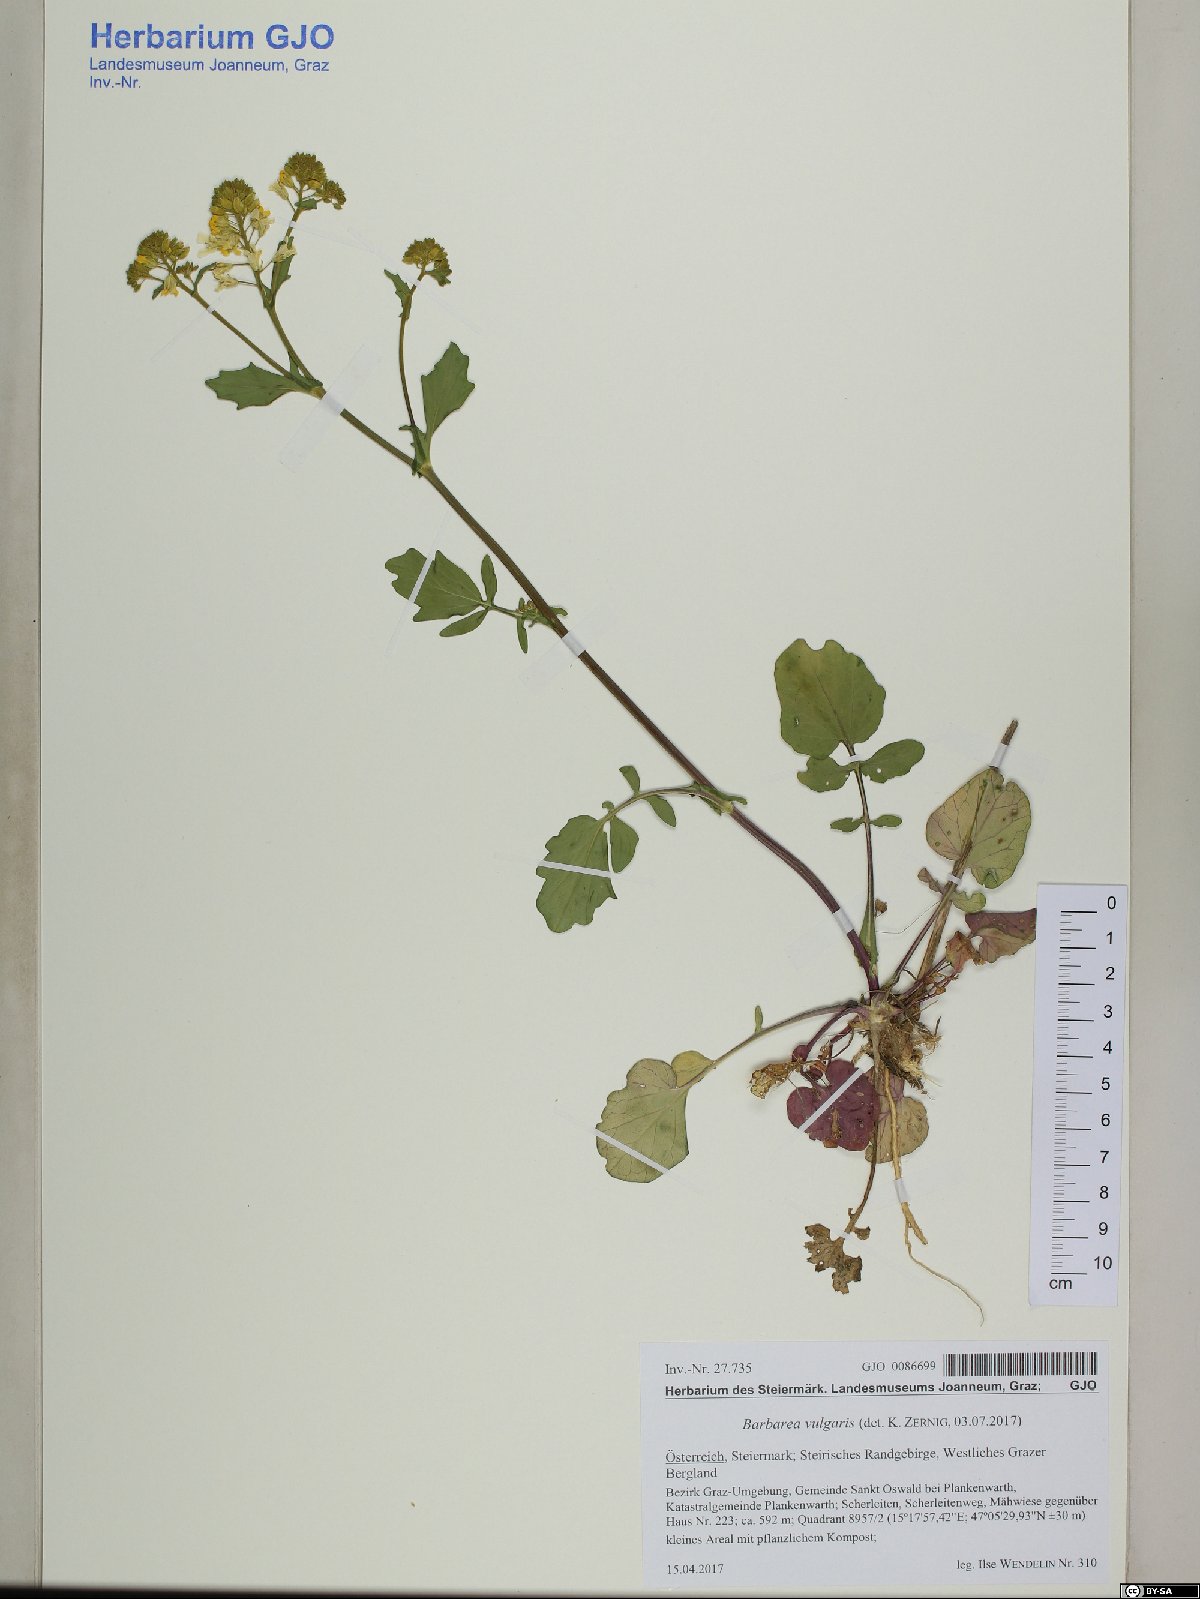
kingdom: Plantae
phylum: Tracheophyta
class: Magnoliopsida
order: Brassicales
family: Brassicaceae
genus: Barbarea
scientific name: Barbarea vulgaris
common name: Cressy-greens
